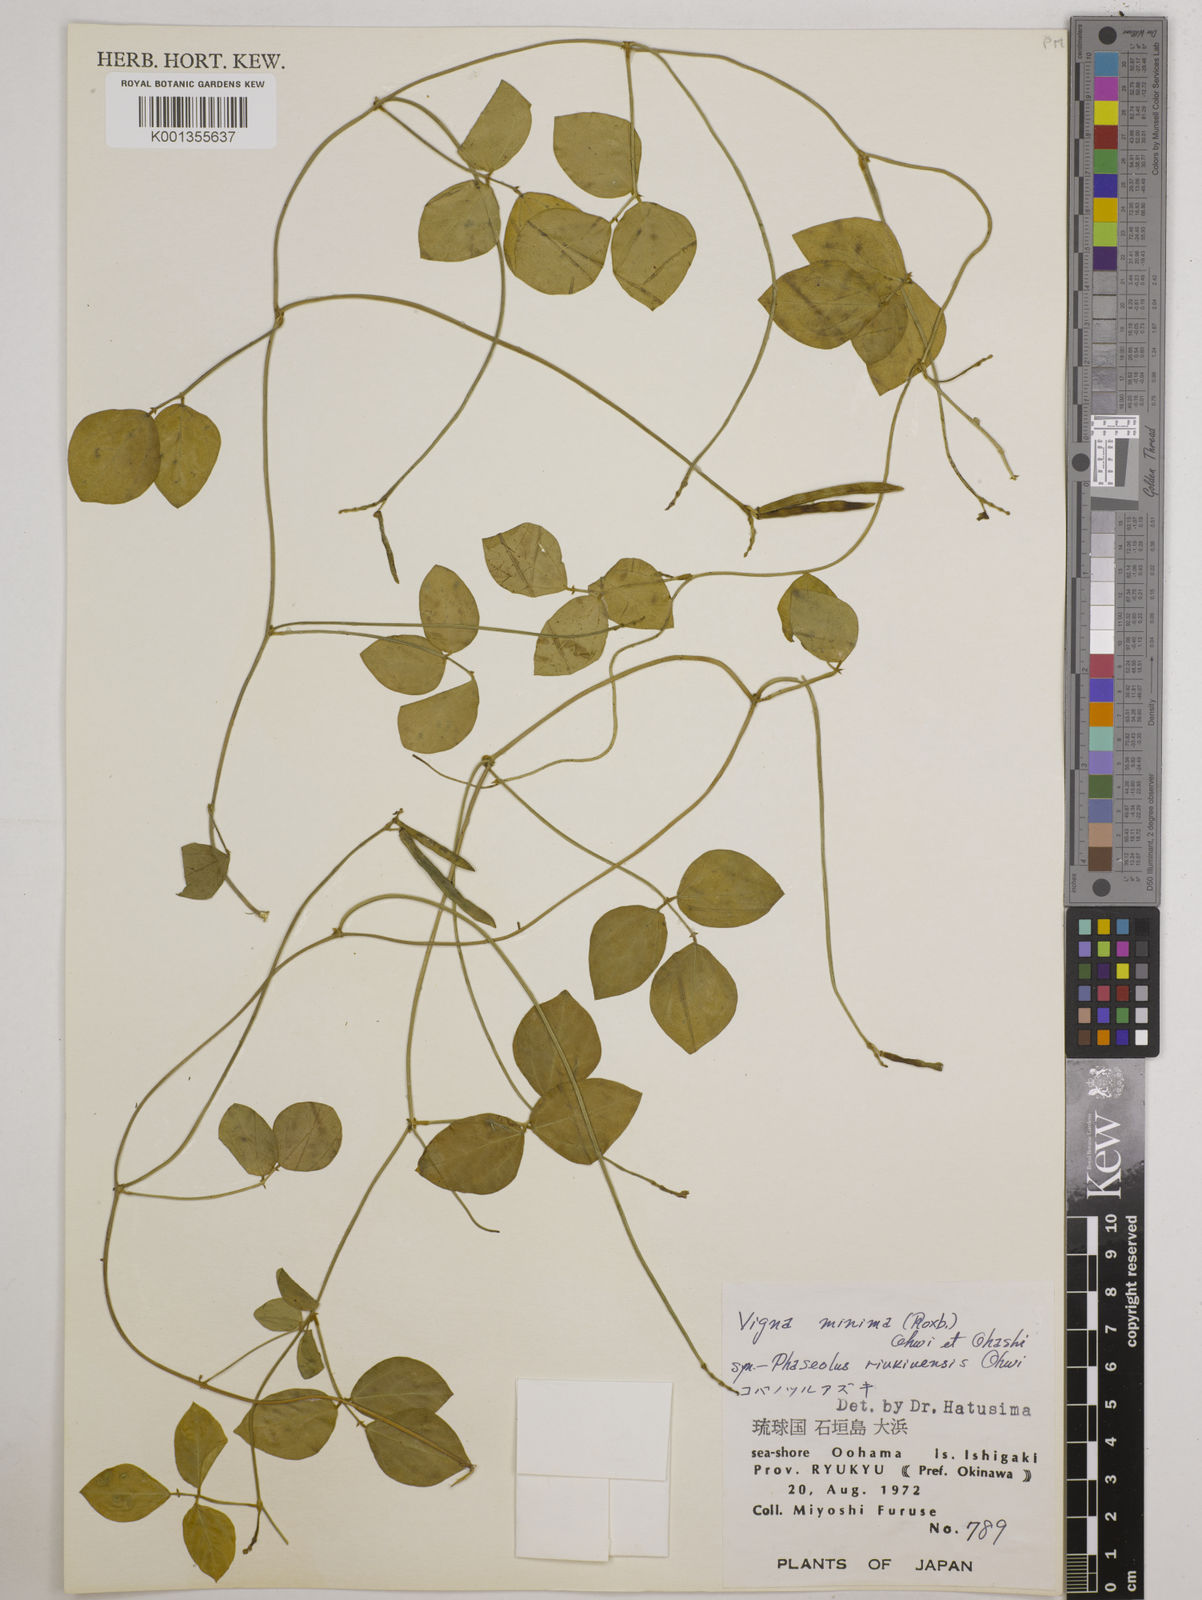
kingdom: Plantae
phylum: Tracheophyta
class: Magnoliopsida
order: Fabales
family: Fabaceae
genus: Vigna
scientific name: Vigna minima
